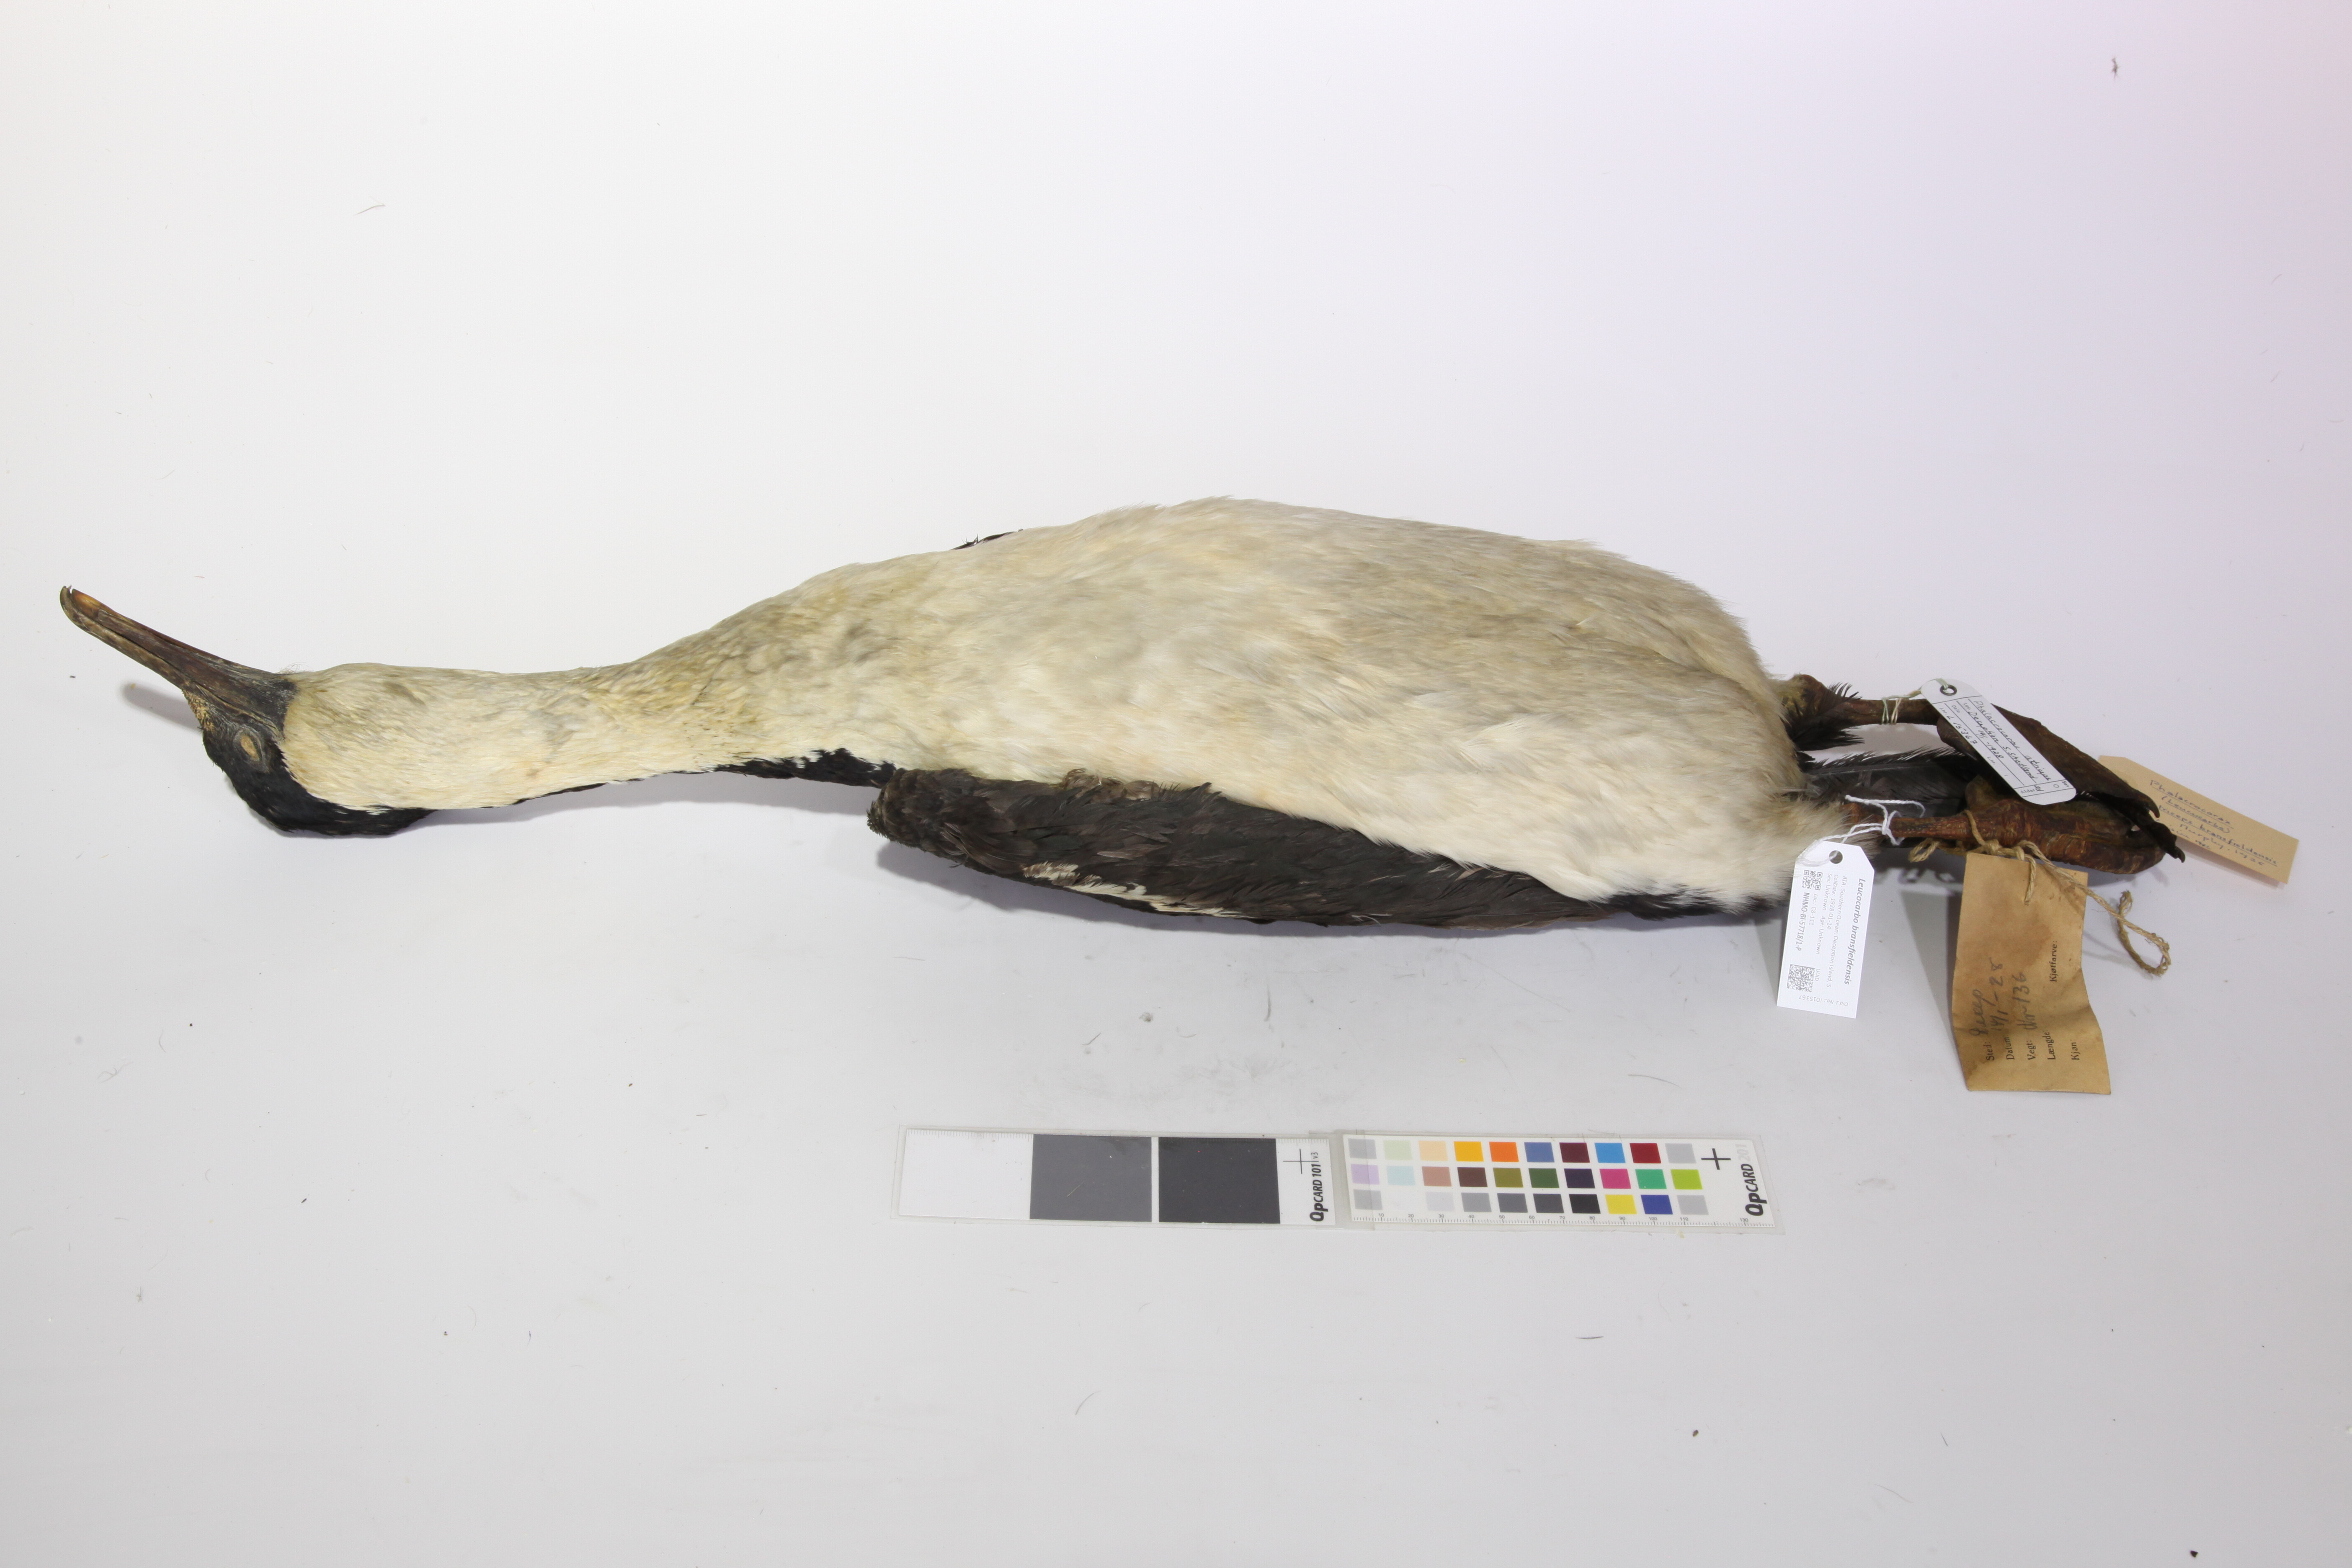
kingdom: Animalia
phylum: Chordata
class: Aves
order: Suliformes
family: Phalacrocoracidae
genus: Leucocarbo
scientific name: Leucocarbo atriceps
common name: Imperial shag
